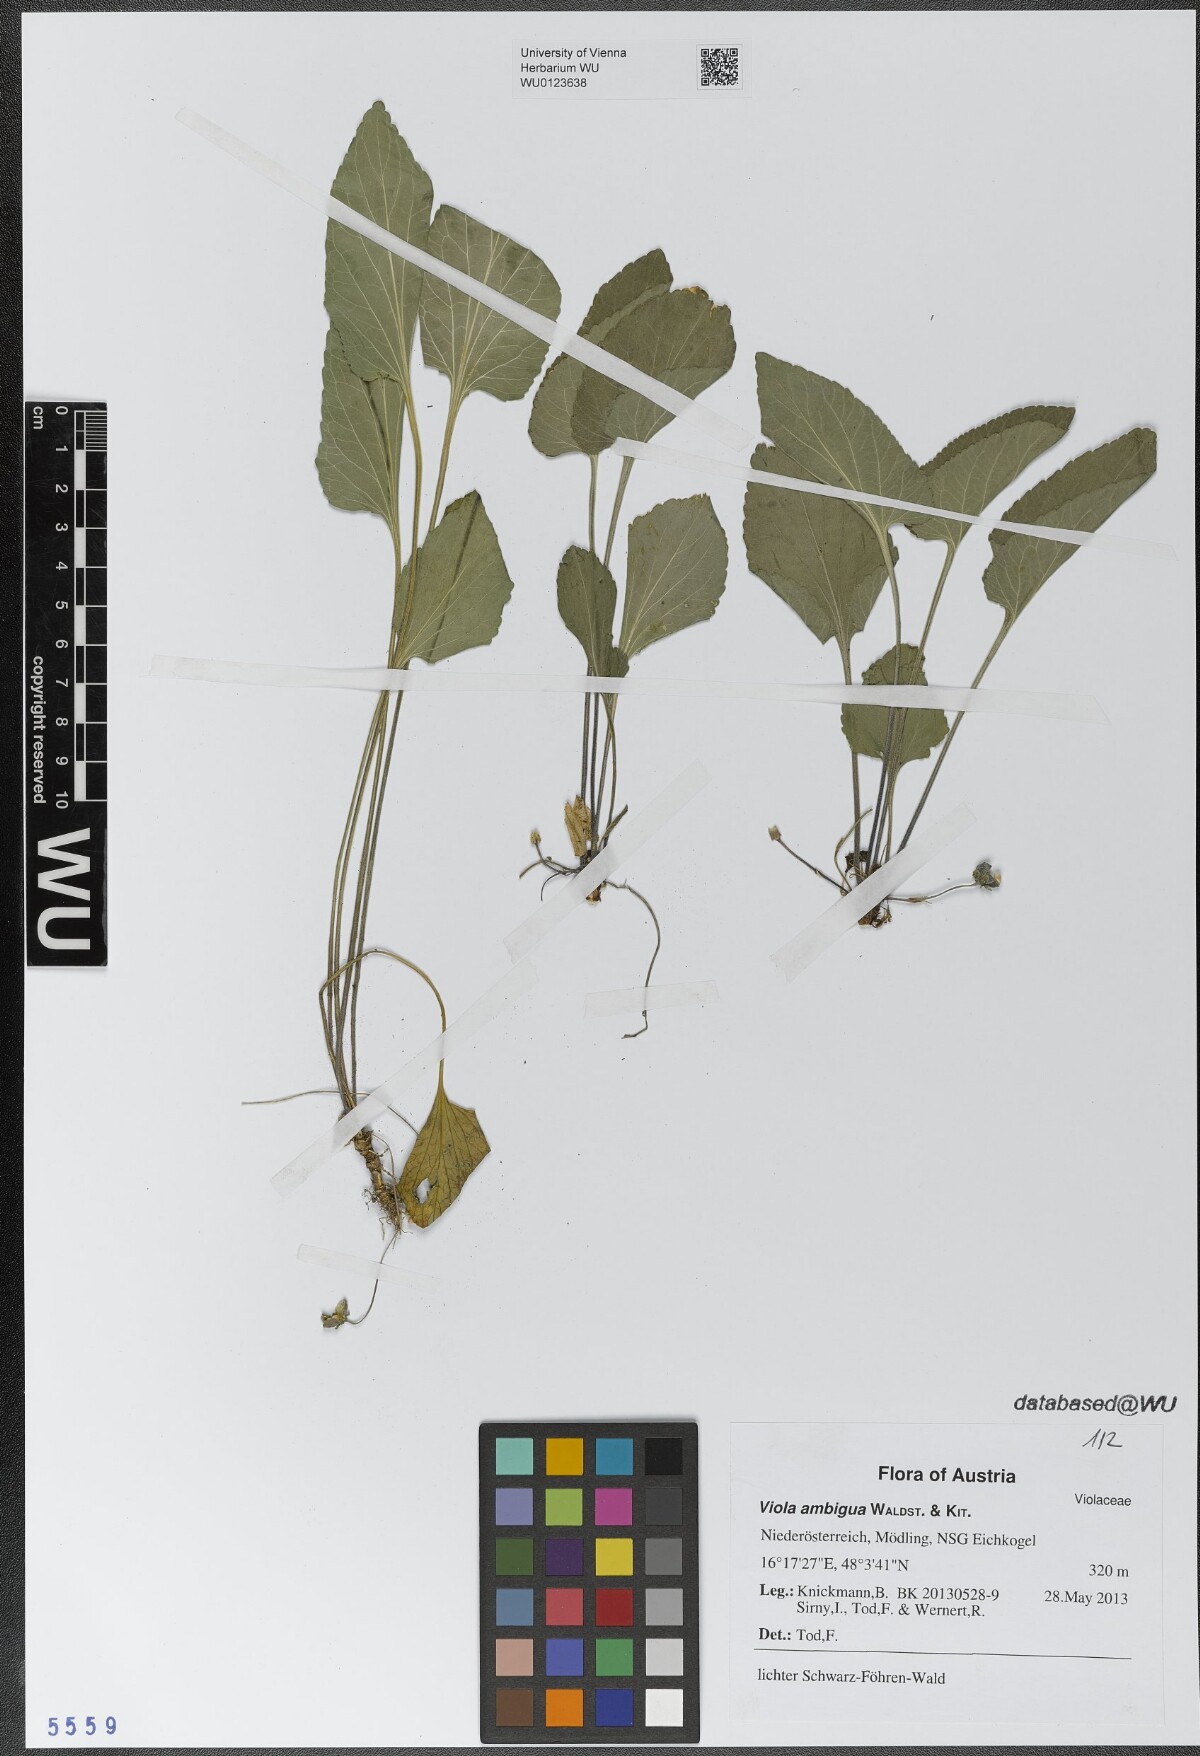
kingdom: Plantae
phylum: Tracheophyta
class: Magnoliopsida
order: Malpighiales
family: Violaceae
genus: Viola
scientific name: Viola ambigua
